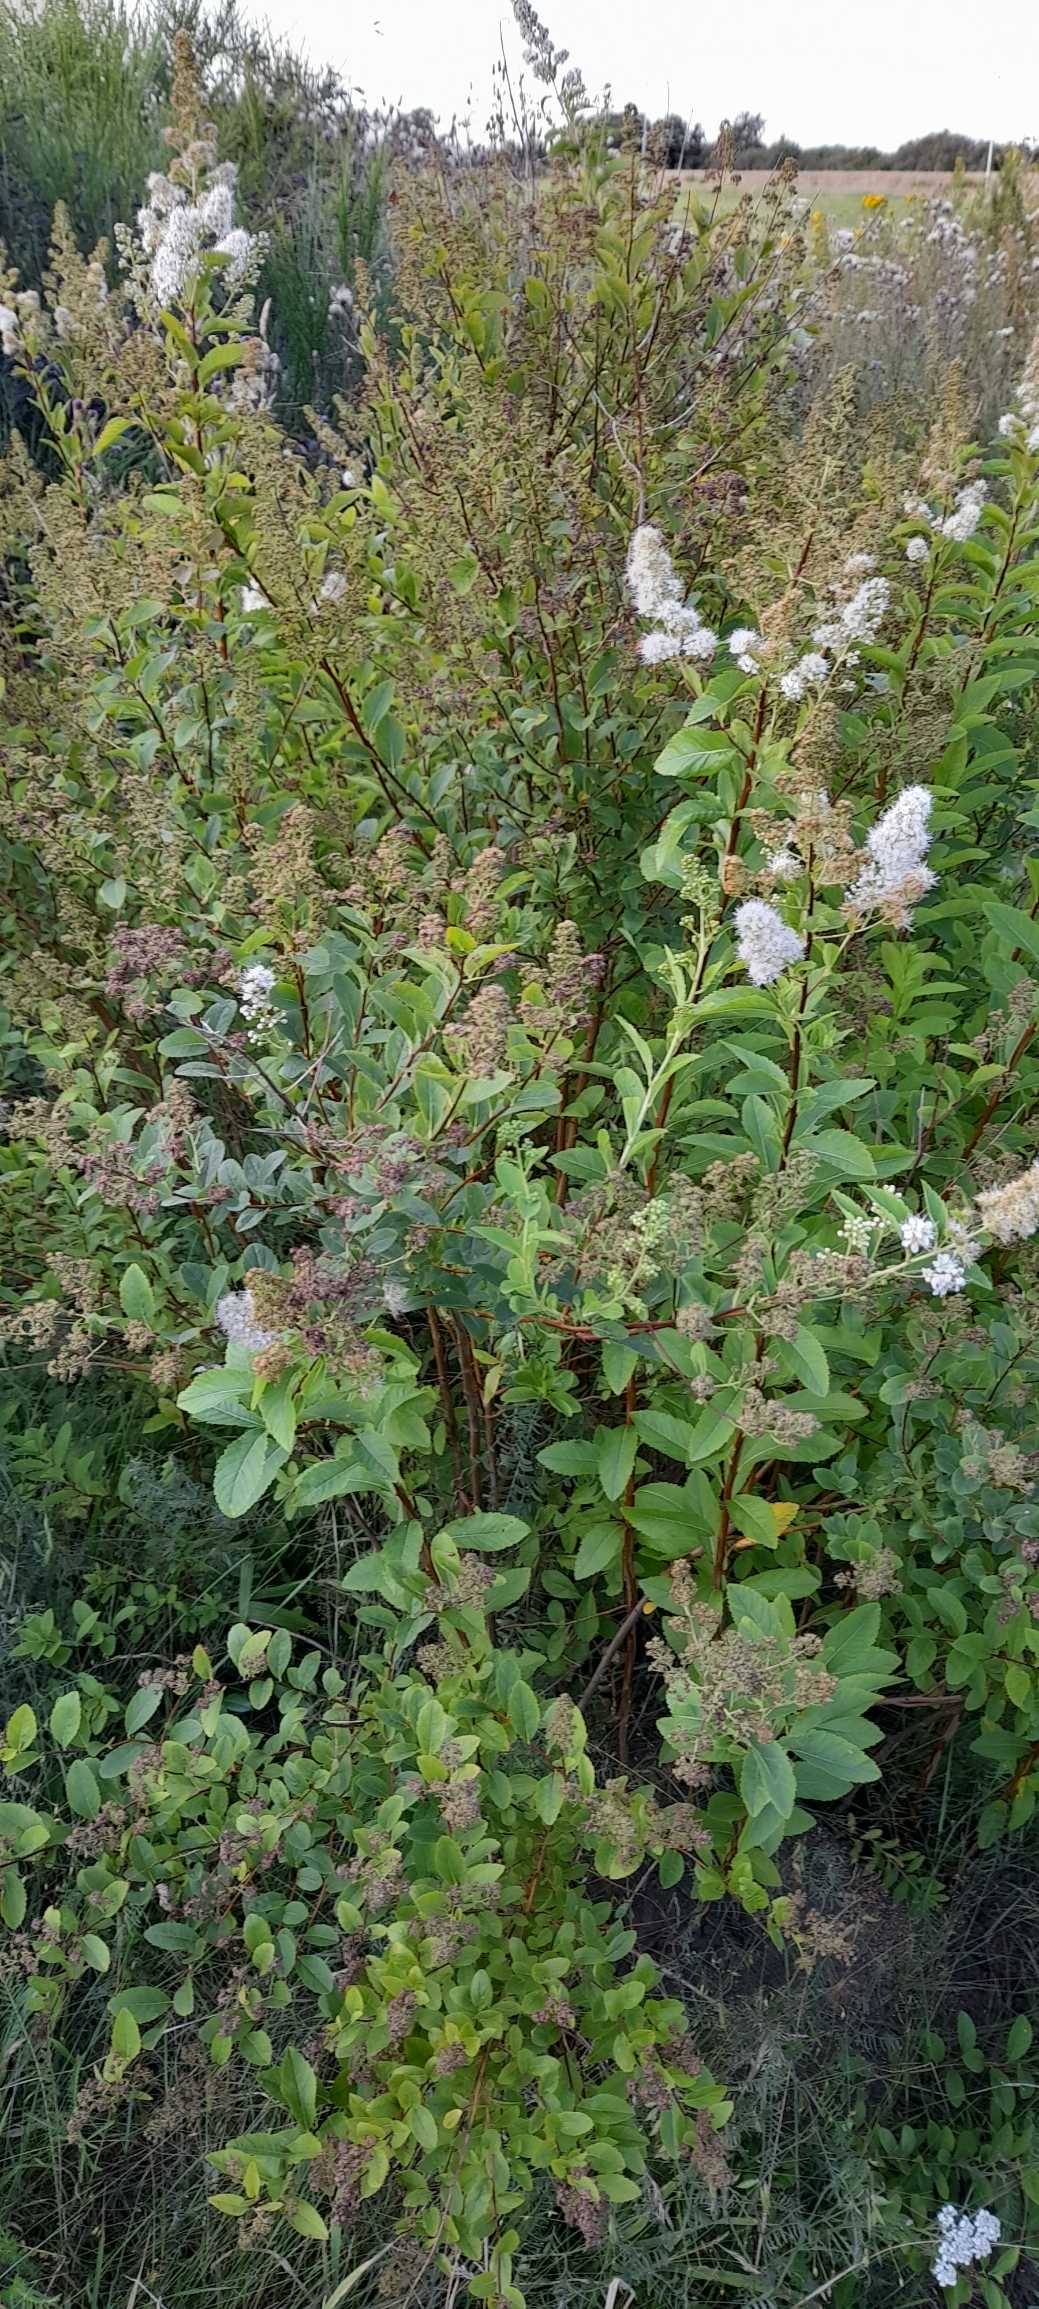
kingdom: Plantae
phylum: Tracheophyta
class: Magnoliopsida
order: Rosales
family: Rosaceae
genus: Spiraea
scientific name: Spiraea alba
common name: Bredbladet spiræa
